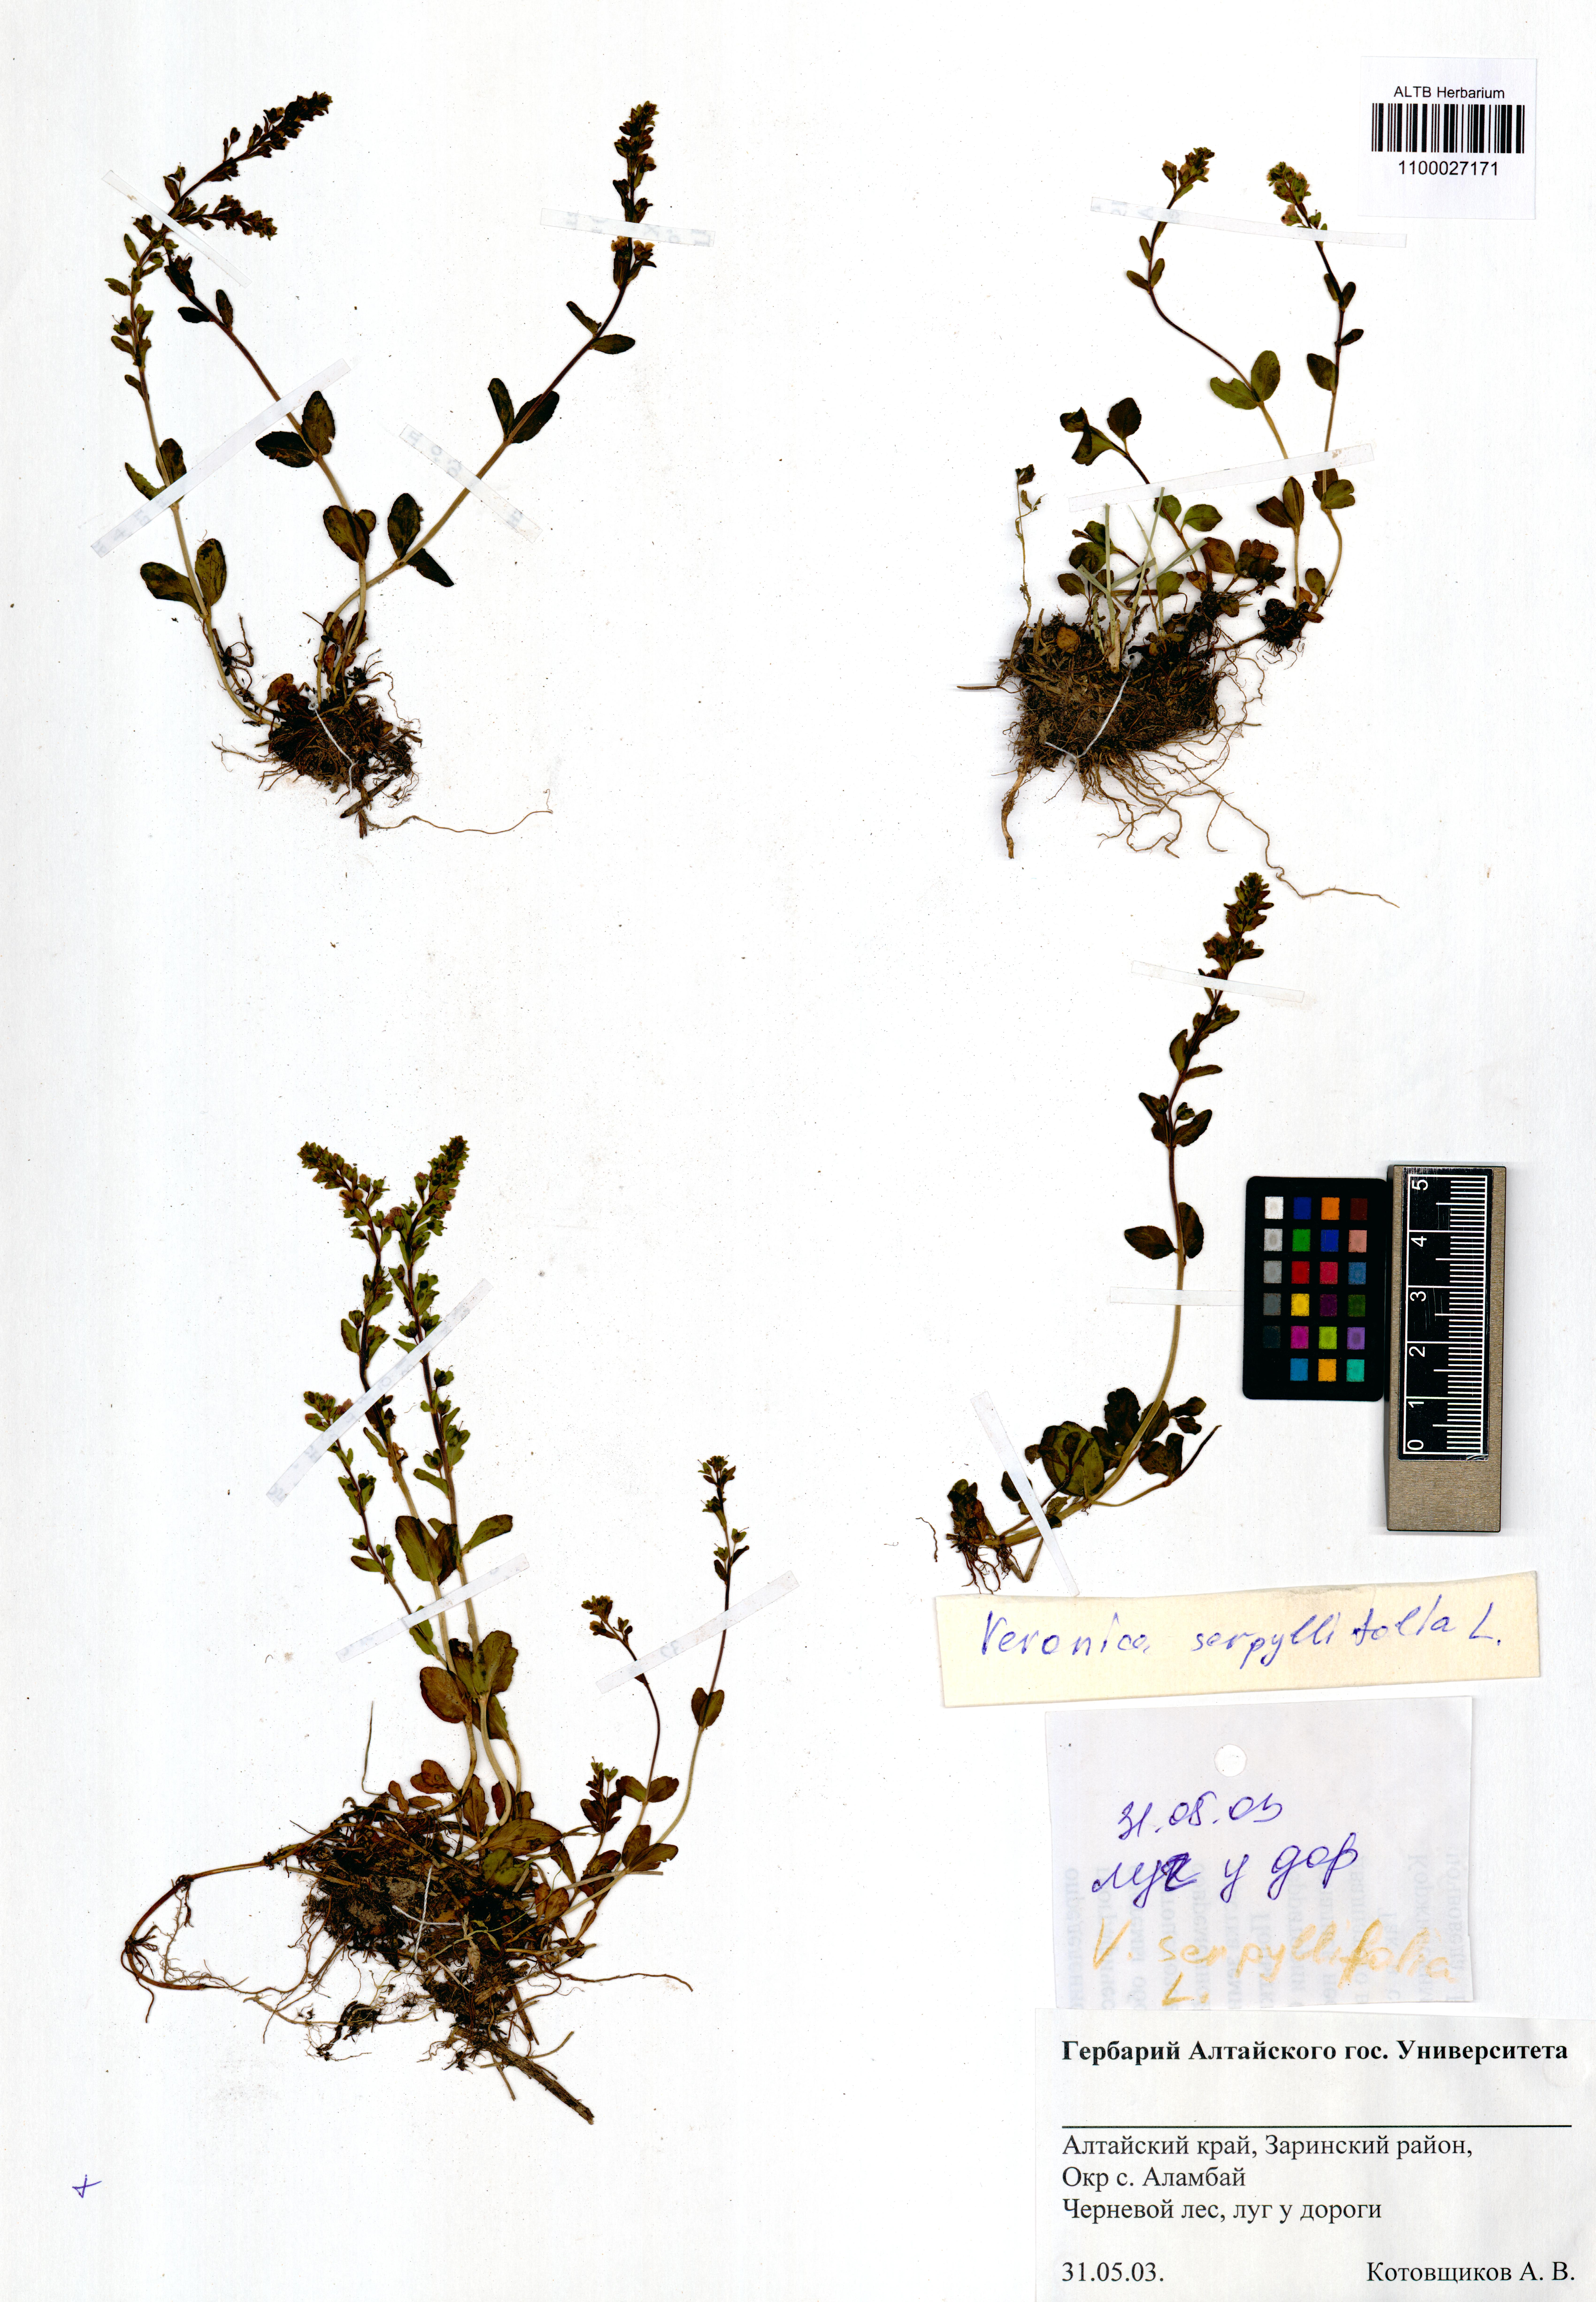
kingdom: Plantae
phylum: Tracheophyta
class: Magnoliopsida
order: Lamiales
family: Plantaginaceae
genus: Veronica
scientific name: Veronica serpyllifolia
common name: Thyme-leaved speedwell
